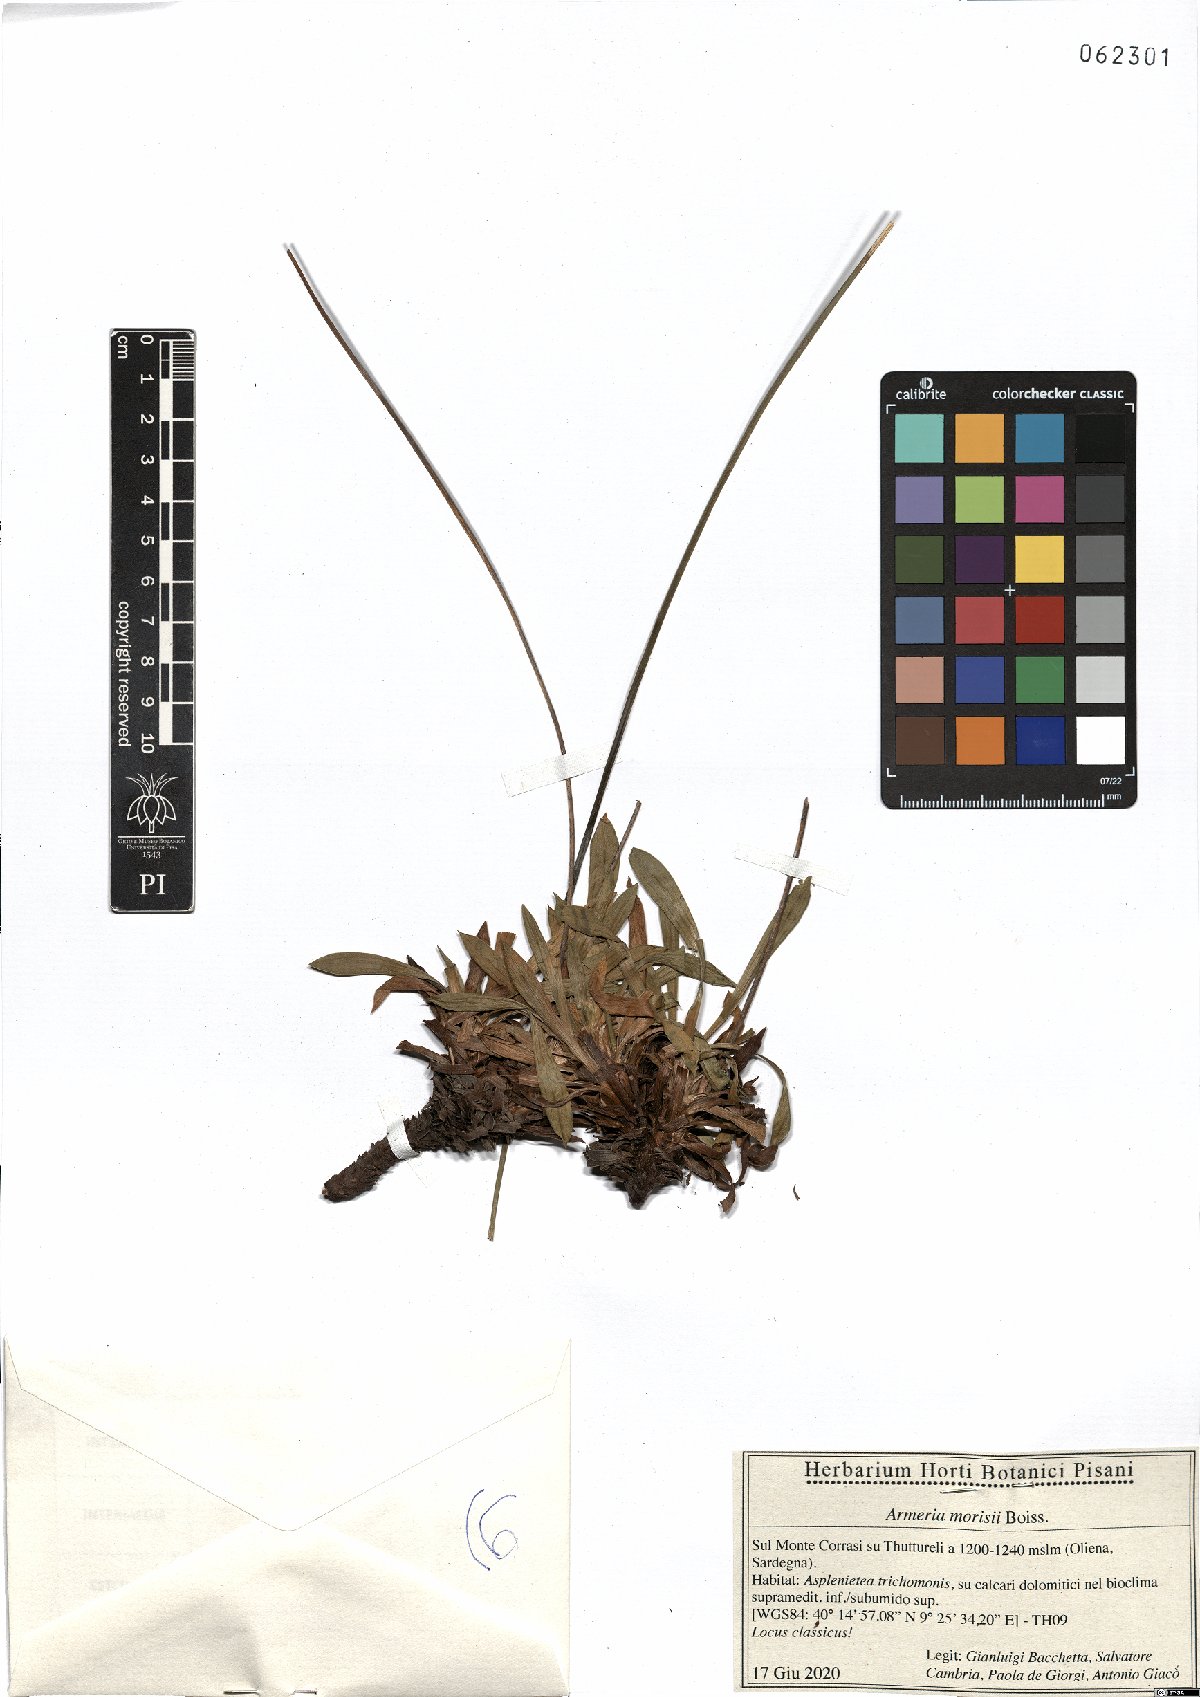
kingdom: Plantae
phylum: Tracheophyta
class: Magnoliopsida
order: Caryophyllales
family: Plumbaginaceae
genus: Armeria
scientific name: Armeria morisii
